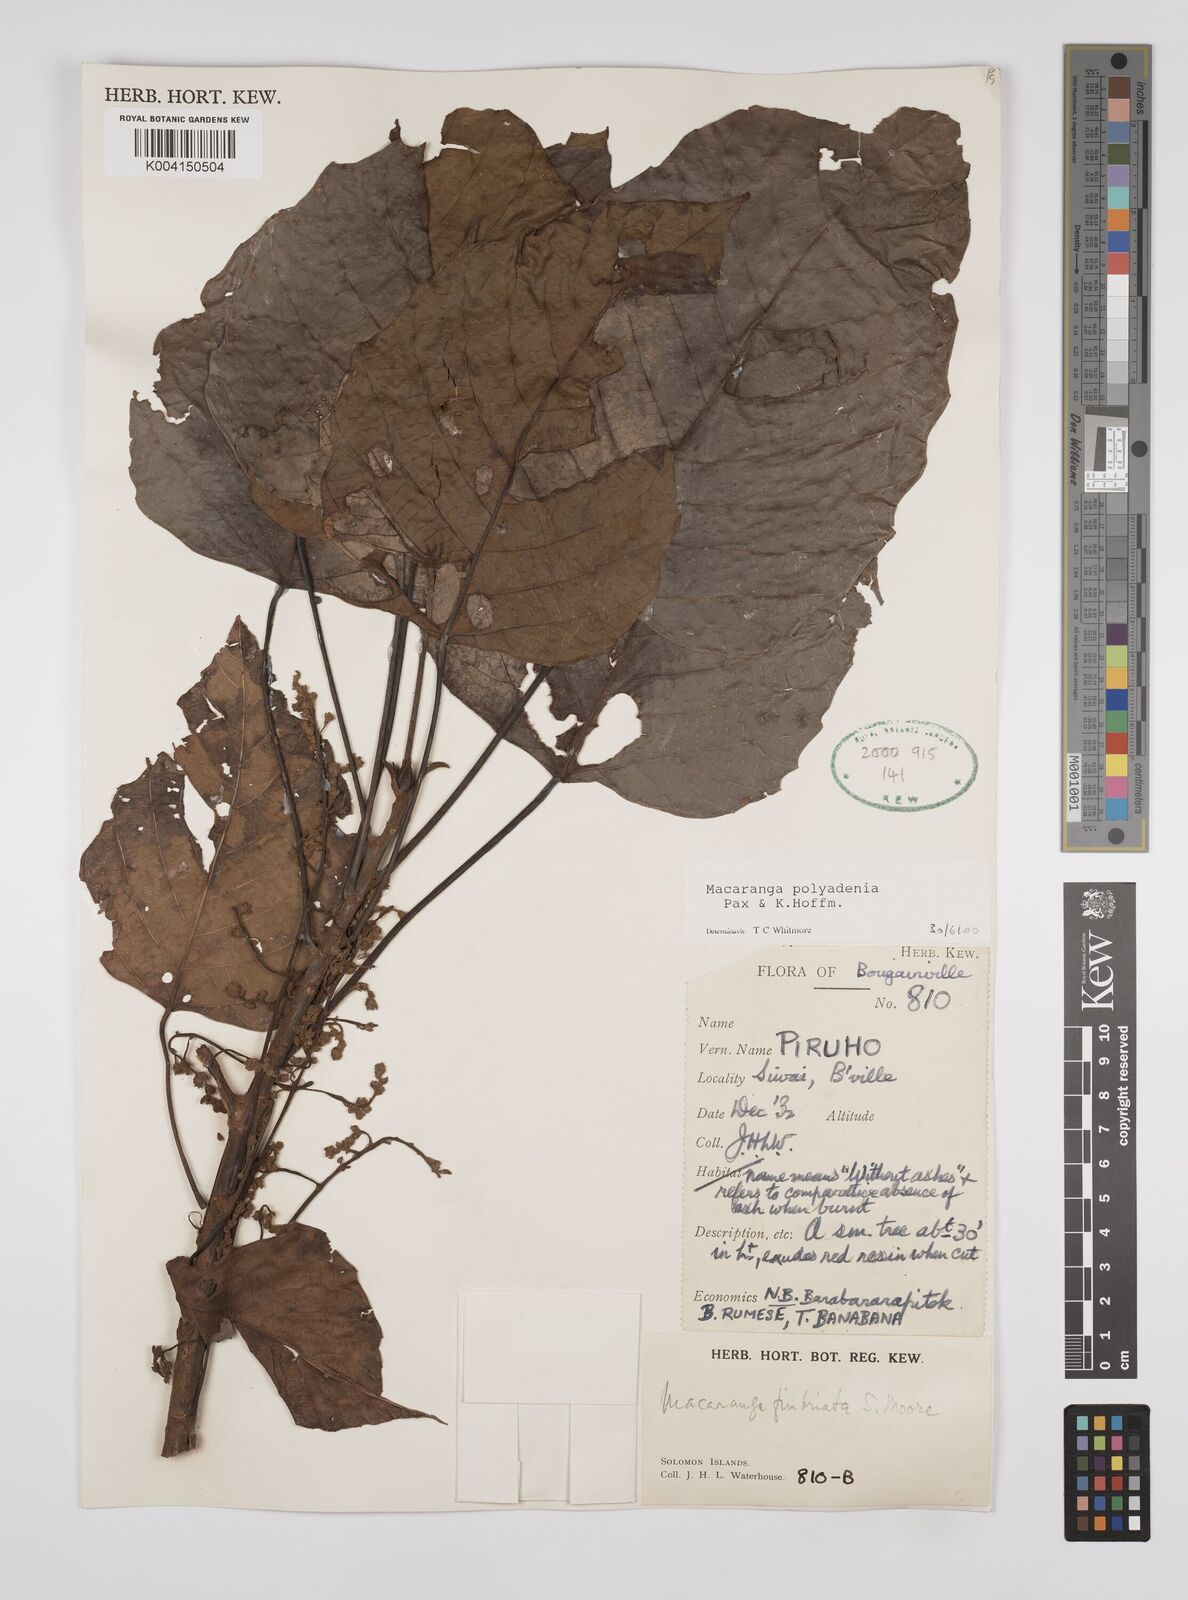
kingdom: Plantae
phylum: Tracheophyta
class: Magnoliopsida
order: Malpighiales
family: Euphorbiaceae
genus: Macaranga
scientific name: Macaranga polyadenia
